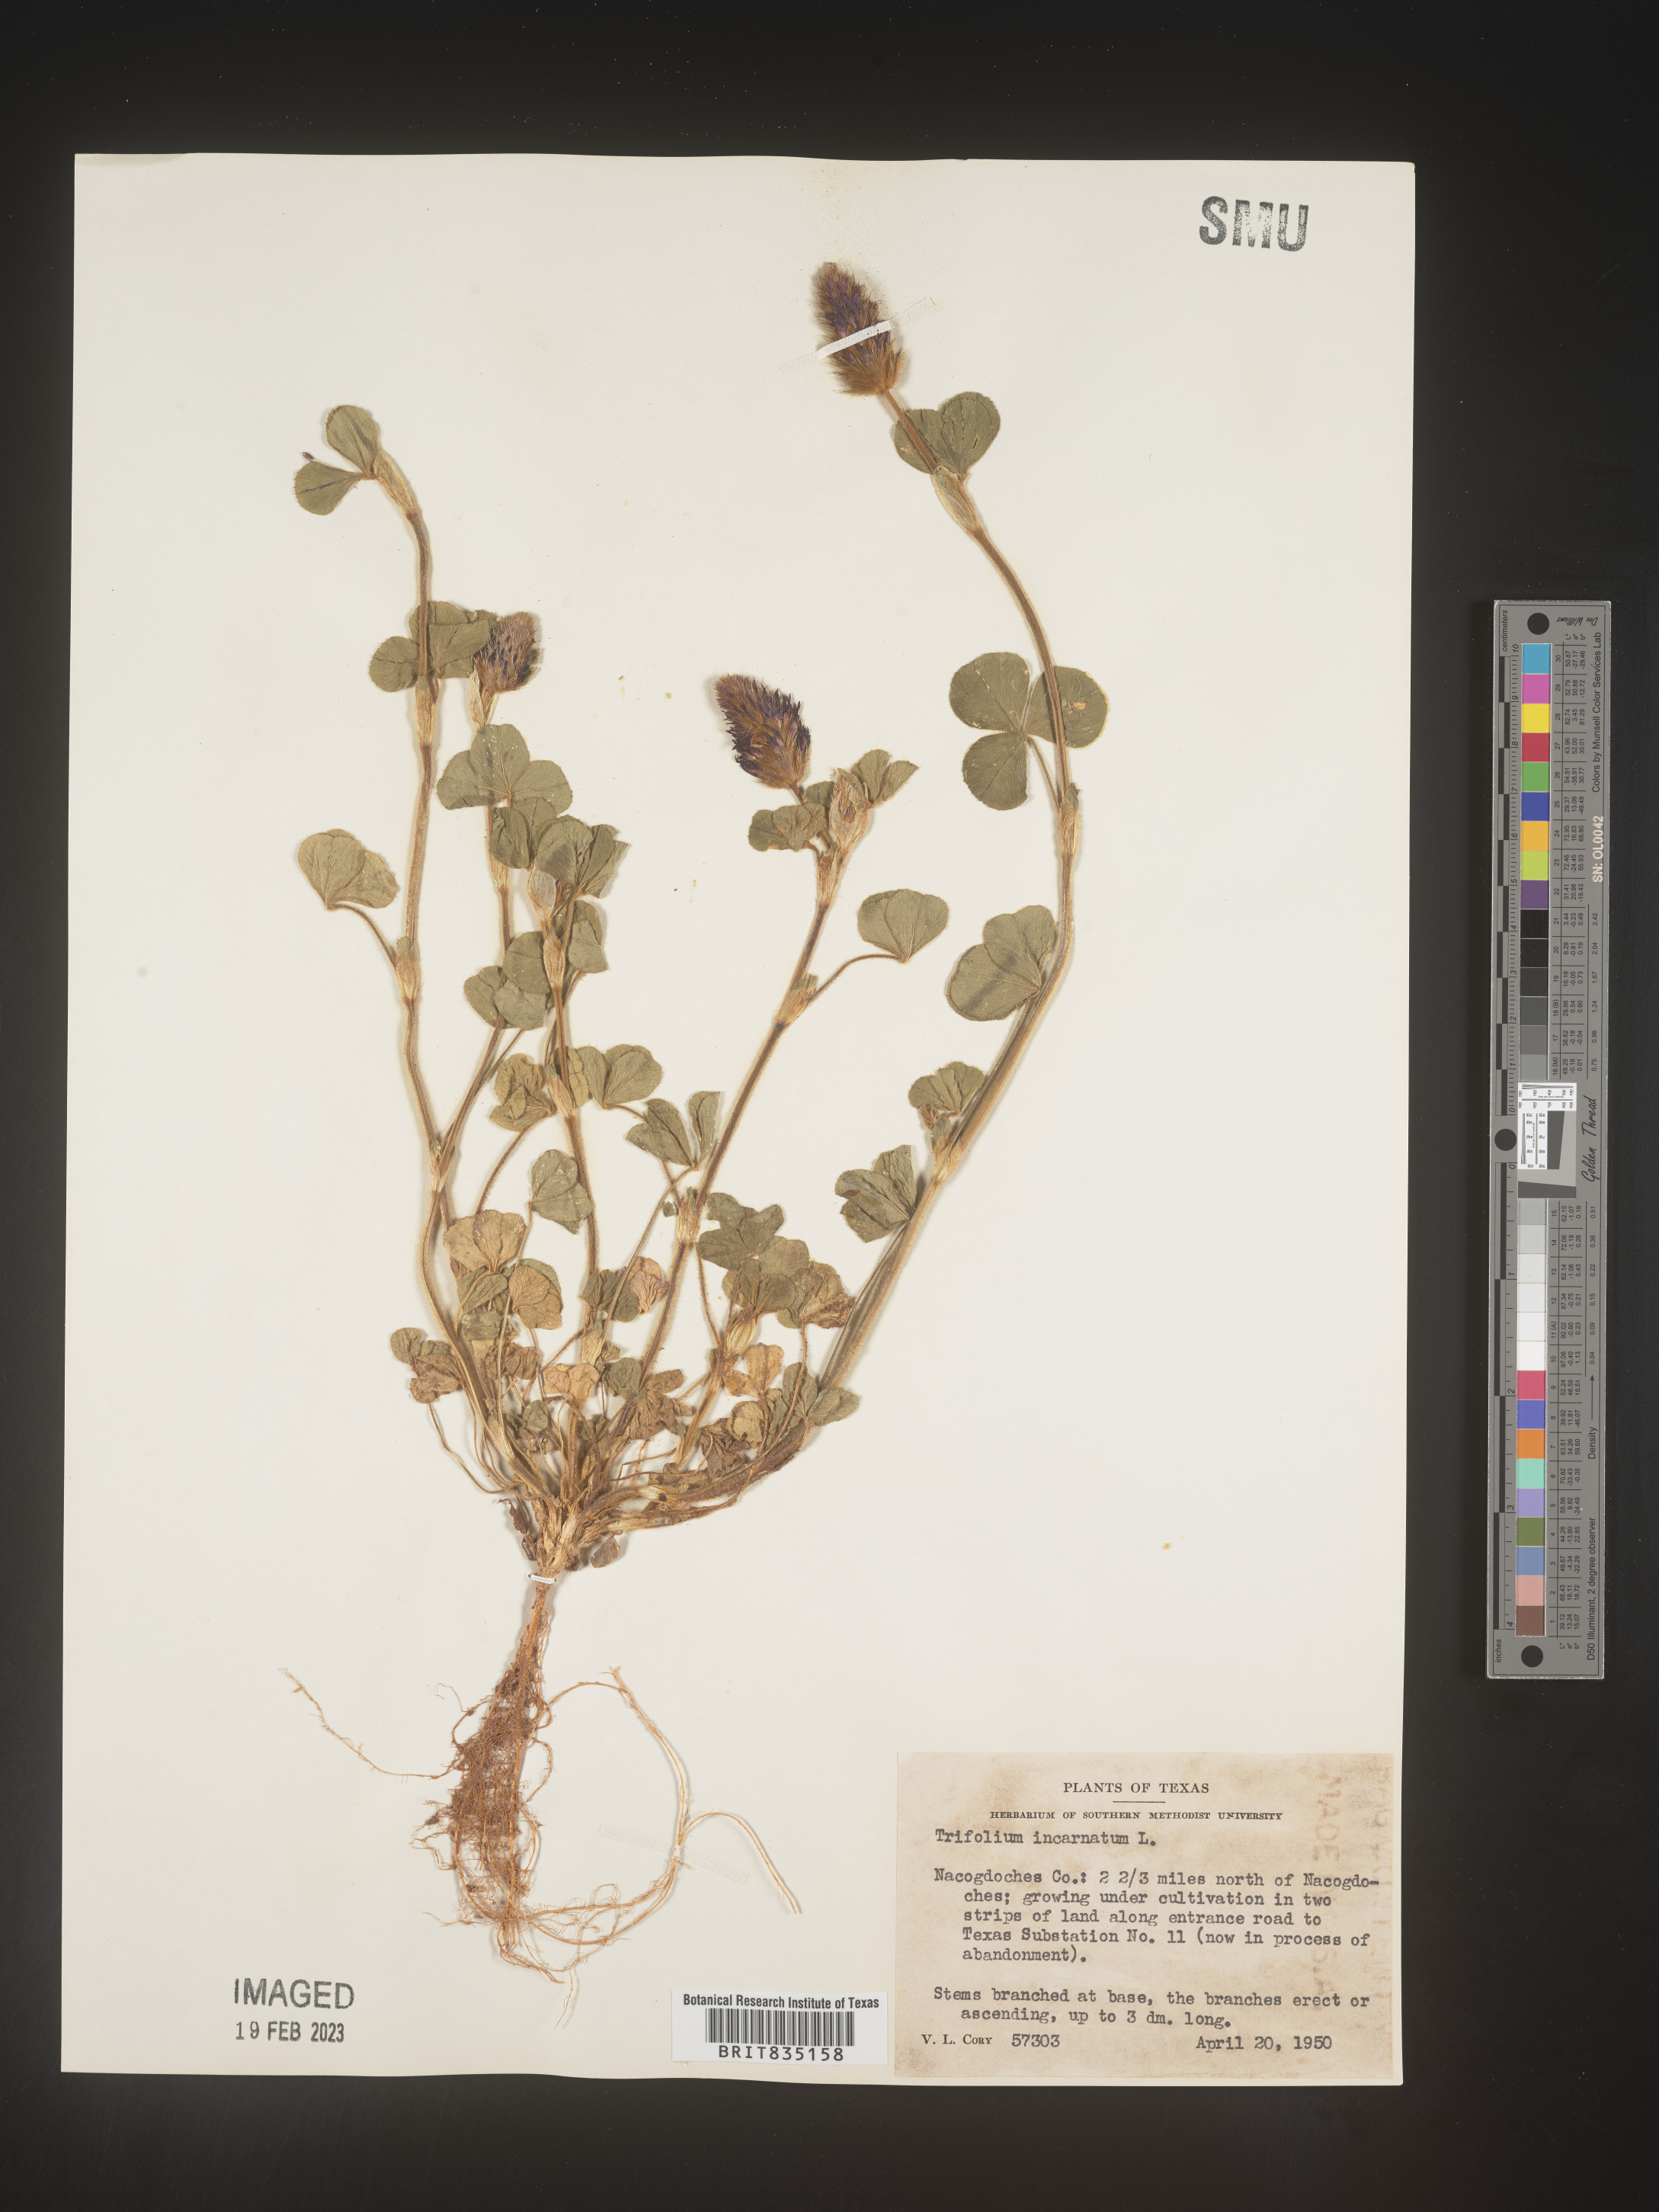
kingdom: Plantae
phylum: Tracheophyta
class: Magnoliopsida
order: Fabales
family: Fabaceae
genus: Trigonella
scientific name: Trigonella
